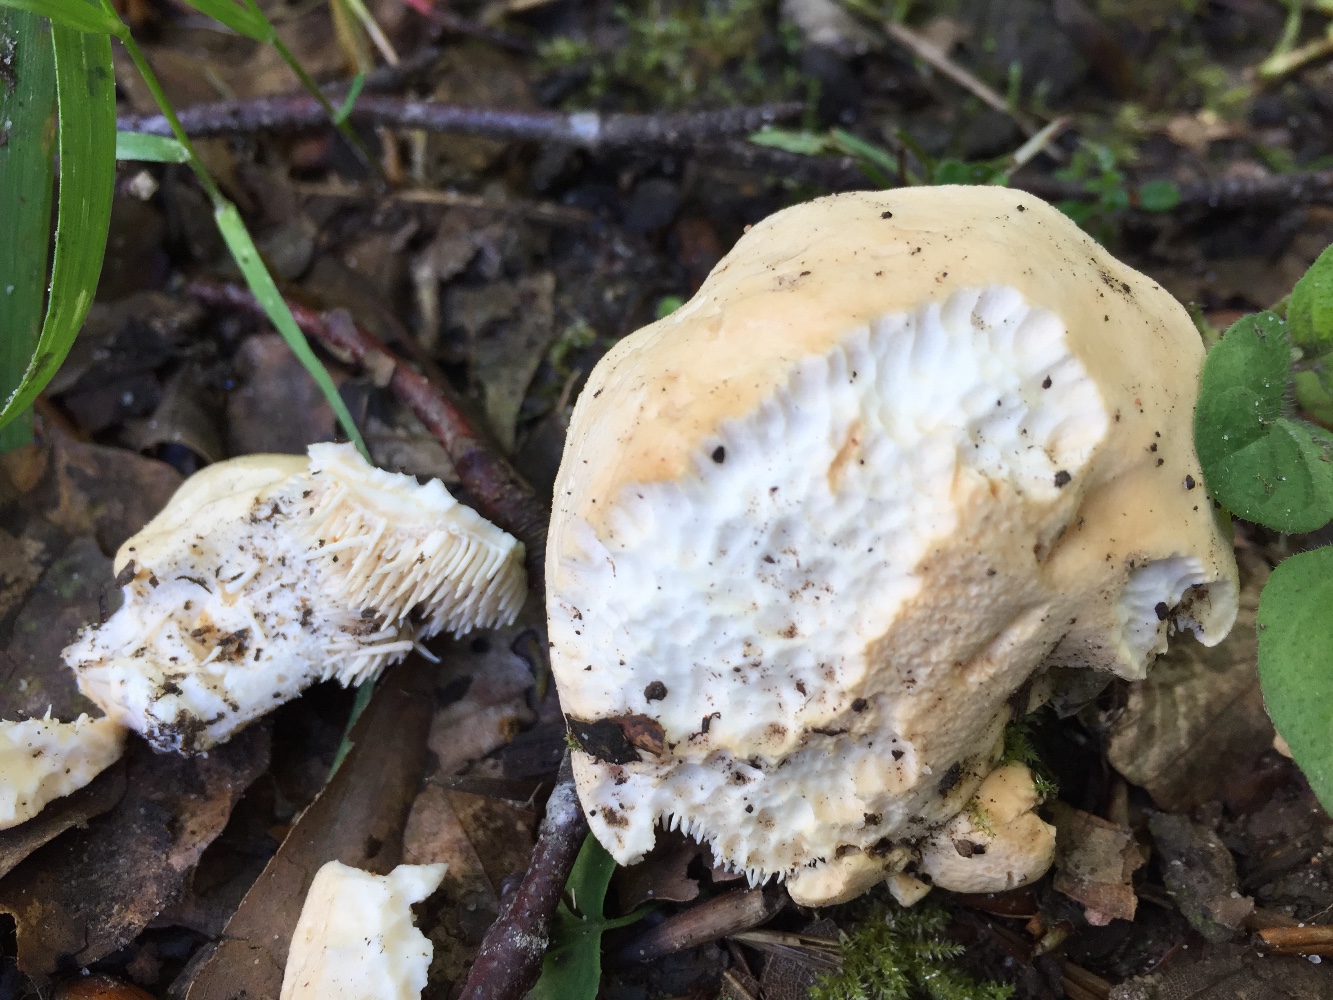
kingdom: Fungi
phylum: Basidiomycota
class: Agaricomycetes
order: Cantharellales
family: Hydnaceae
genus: Hydnum
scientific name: Hydnum repandum
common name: almindelig pigsvamp
